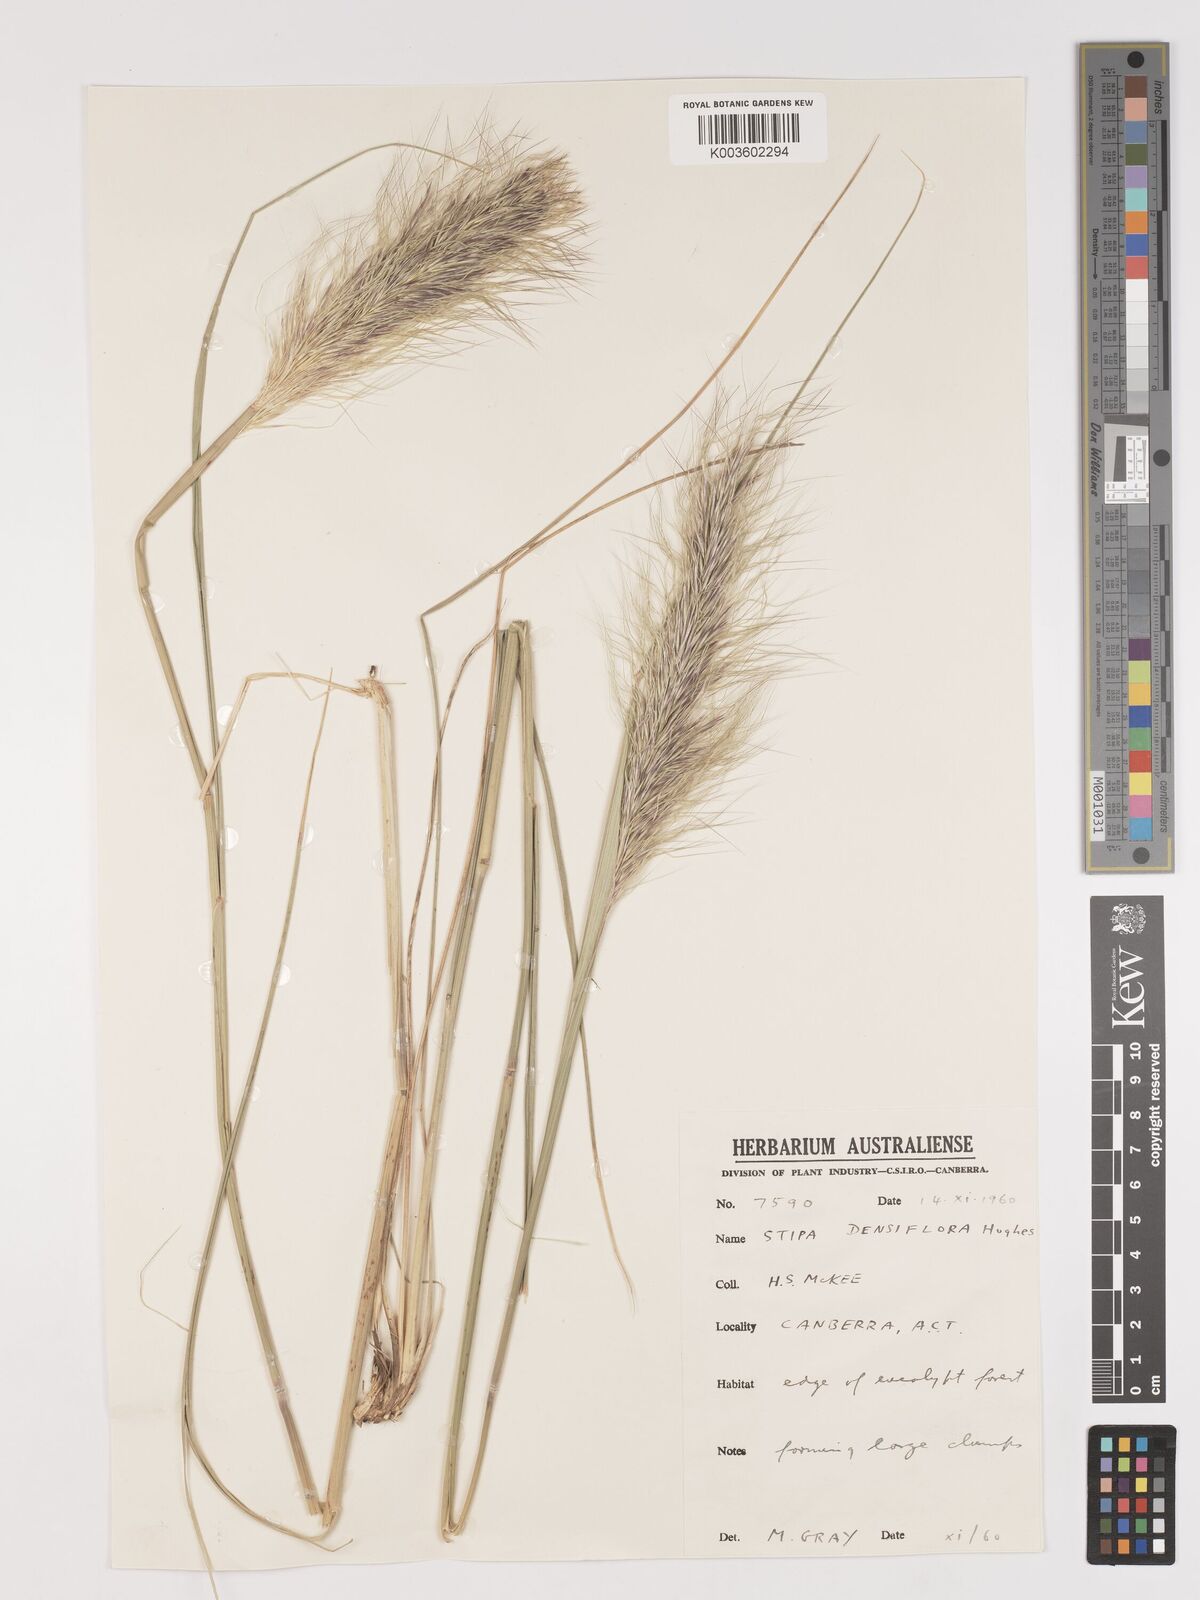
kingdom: Plantae
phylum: Tracheophyta
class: Liliopsida
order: Poales
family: Poaceae
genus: Stipa
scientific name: Stipa
